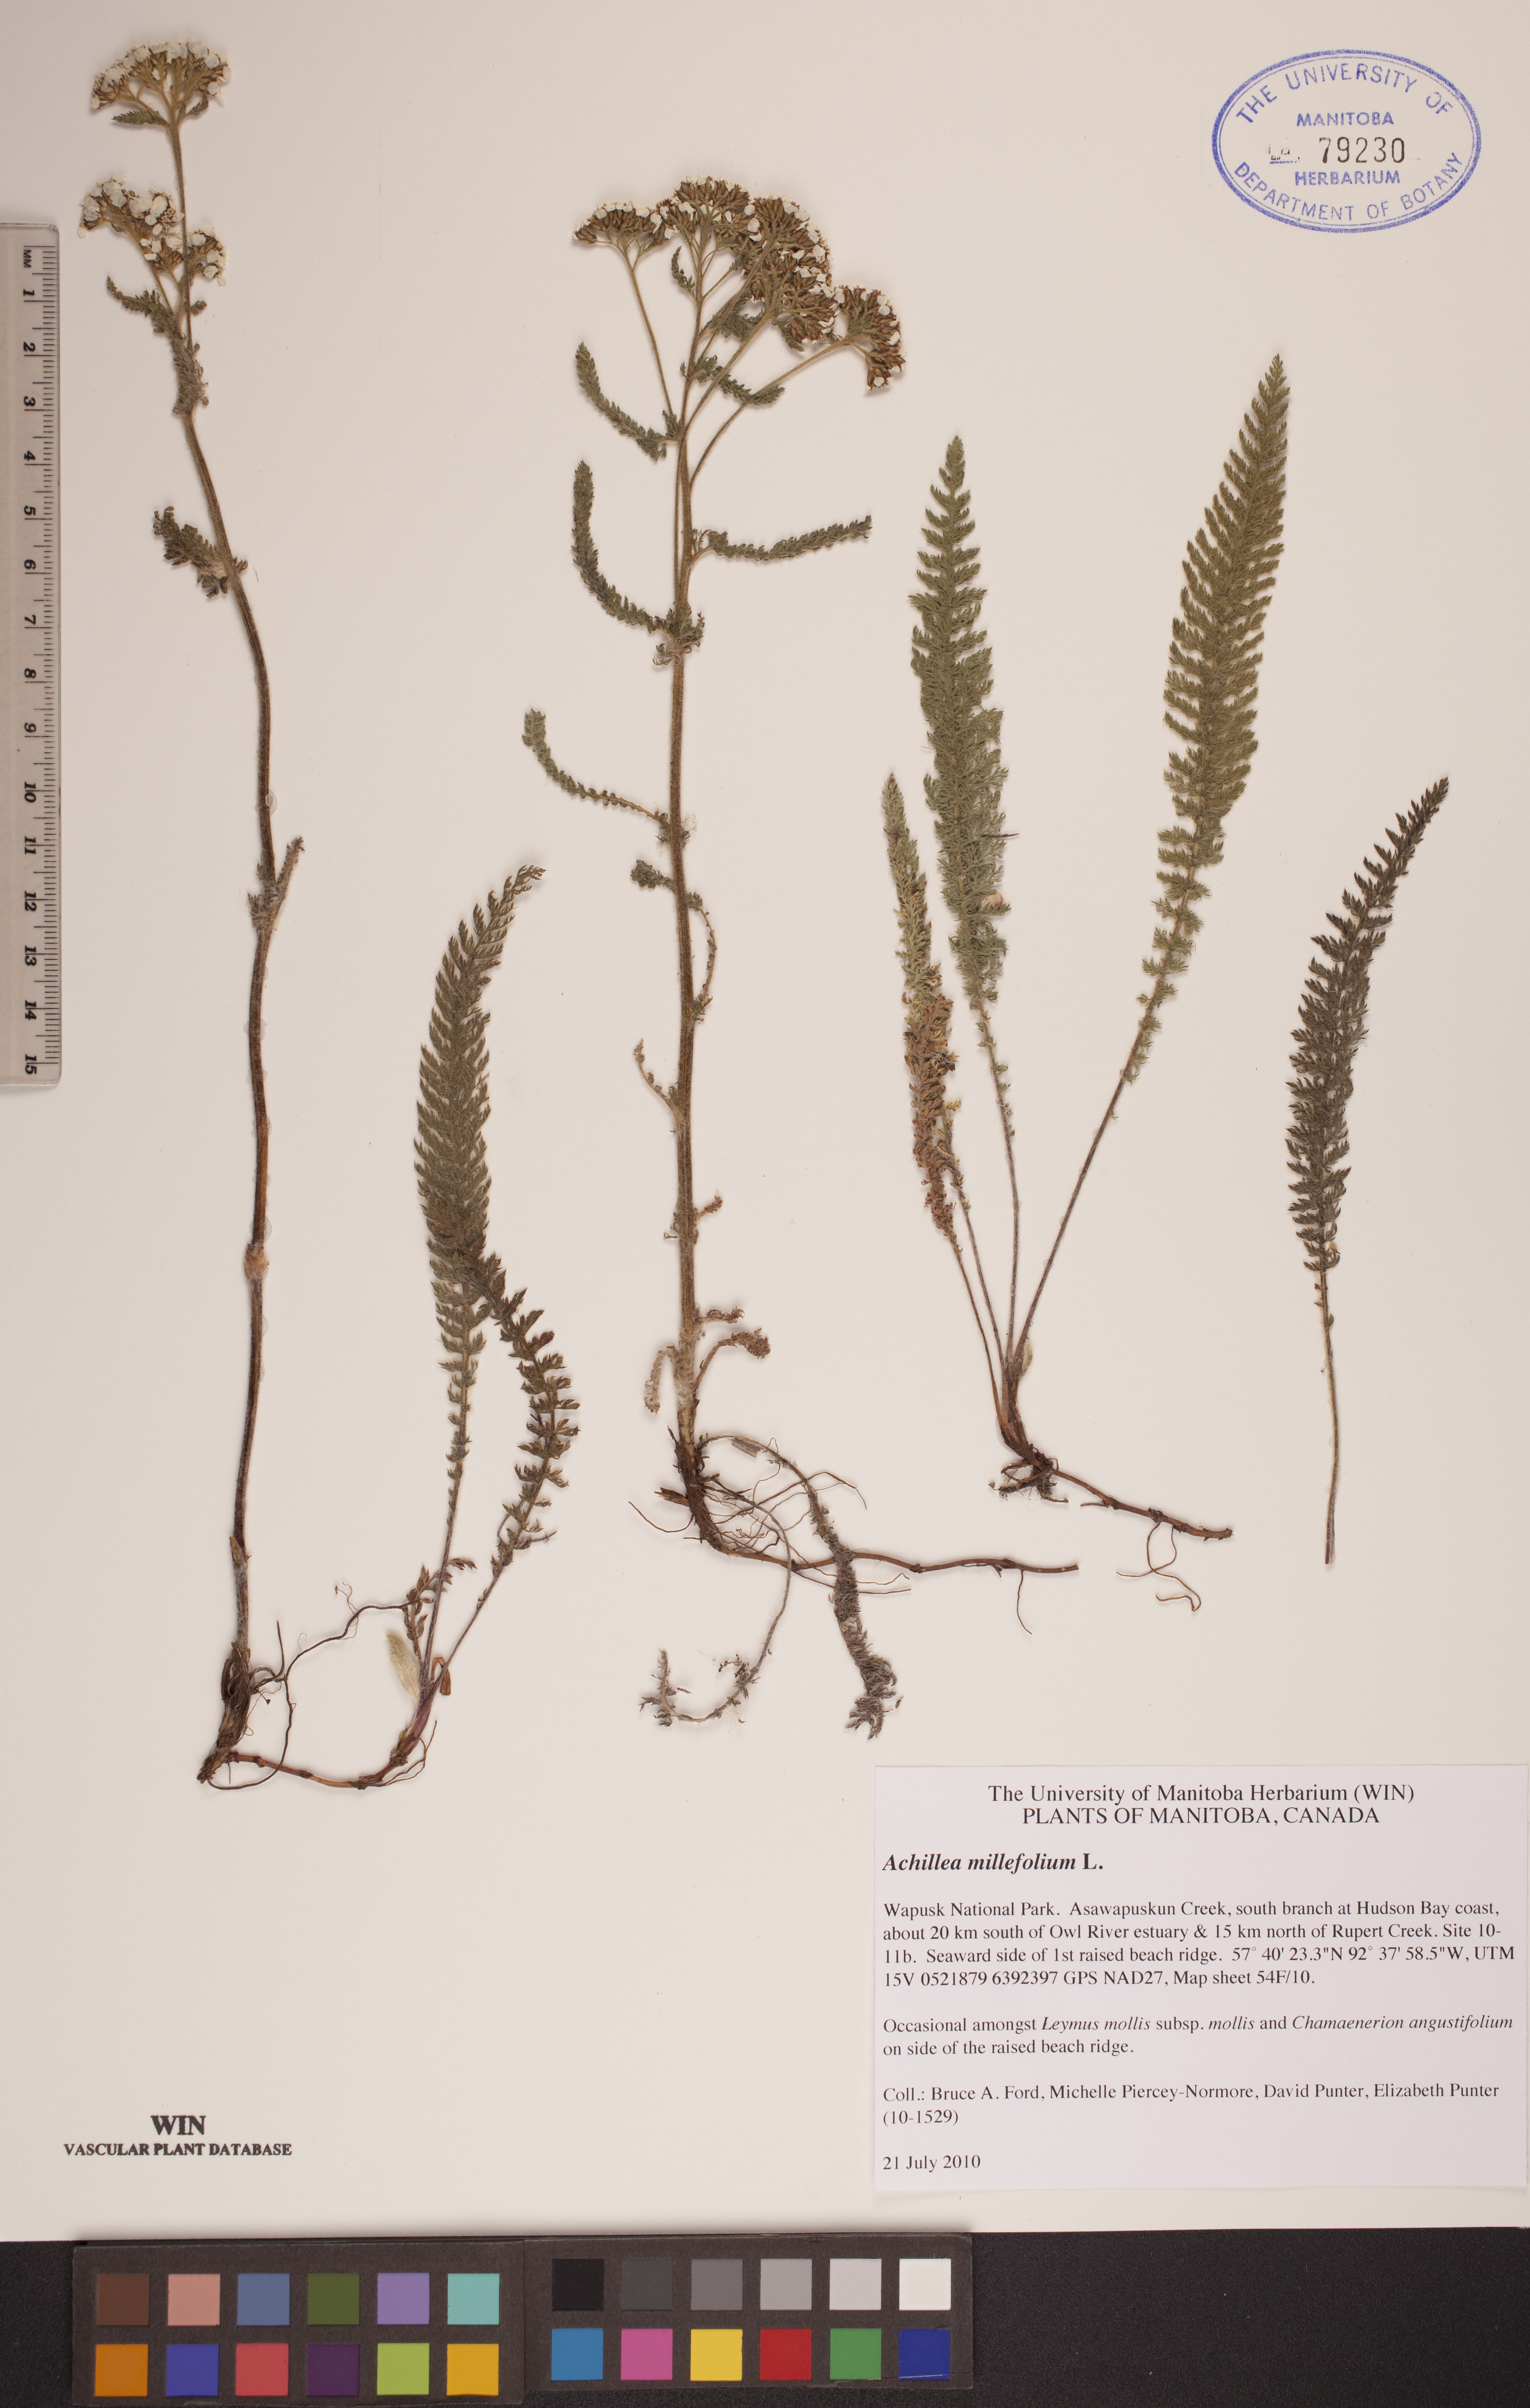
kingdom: Plantae
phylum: Tracheophyta
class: Magnoliopsida
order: Asterales
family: Asteraceae
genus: Achillea
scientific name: Achillea millefolium
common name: Yarrow
